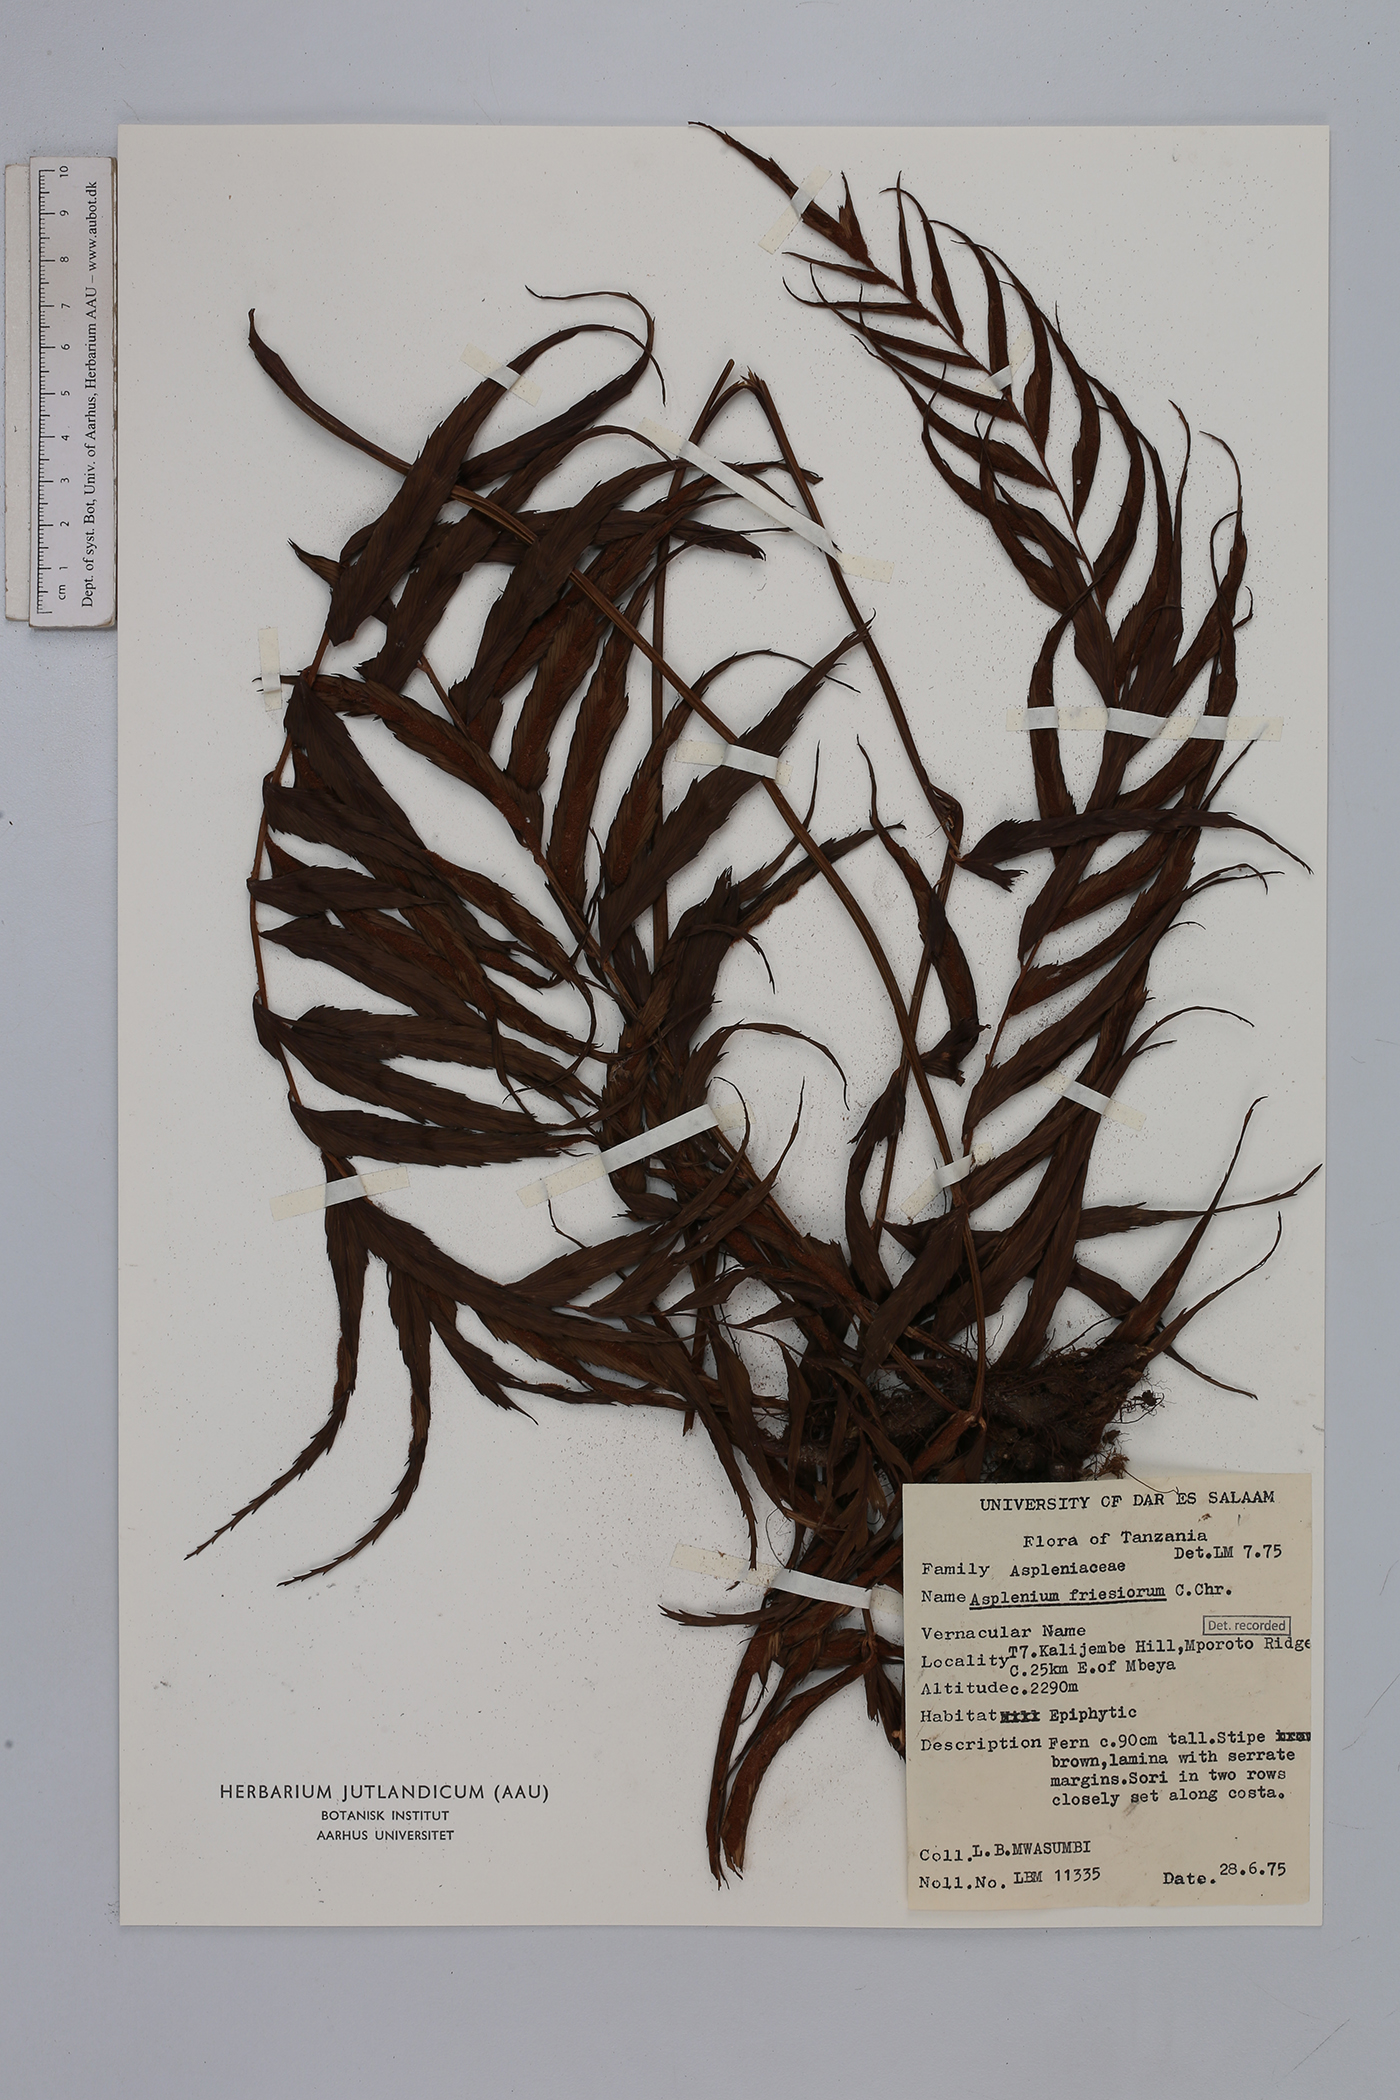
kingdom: Plantae
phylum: Tracheophyta
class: Polypodiopsida
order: Polypodiales
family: Aspleniaceae
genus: Asplenium
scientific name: Asplenium gueinzianum
